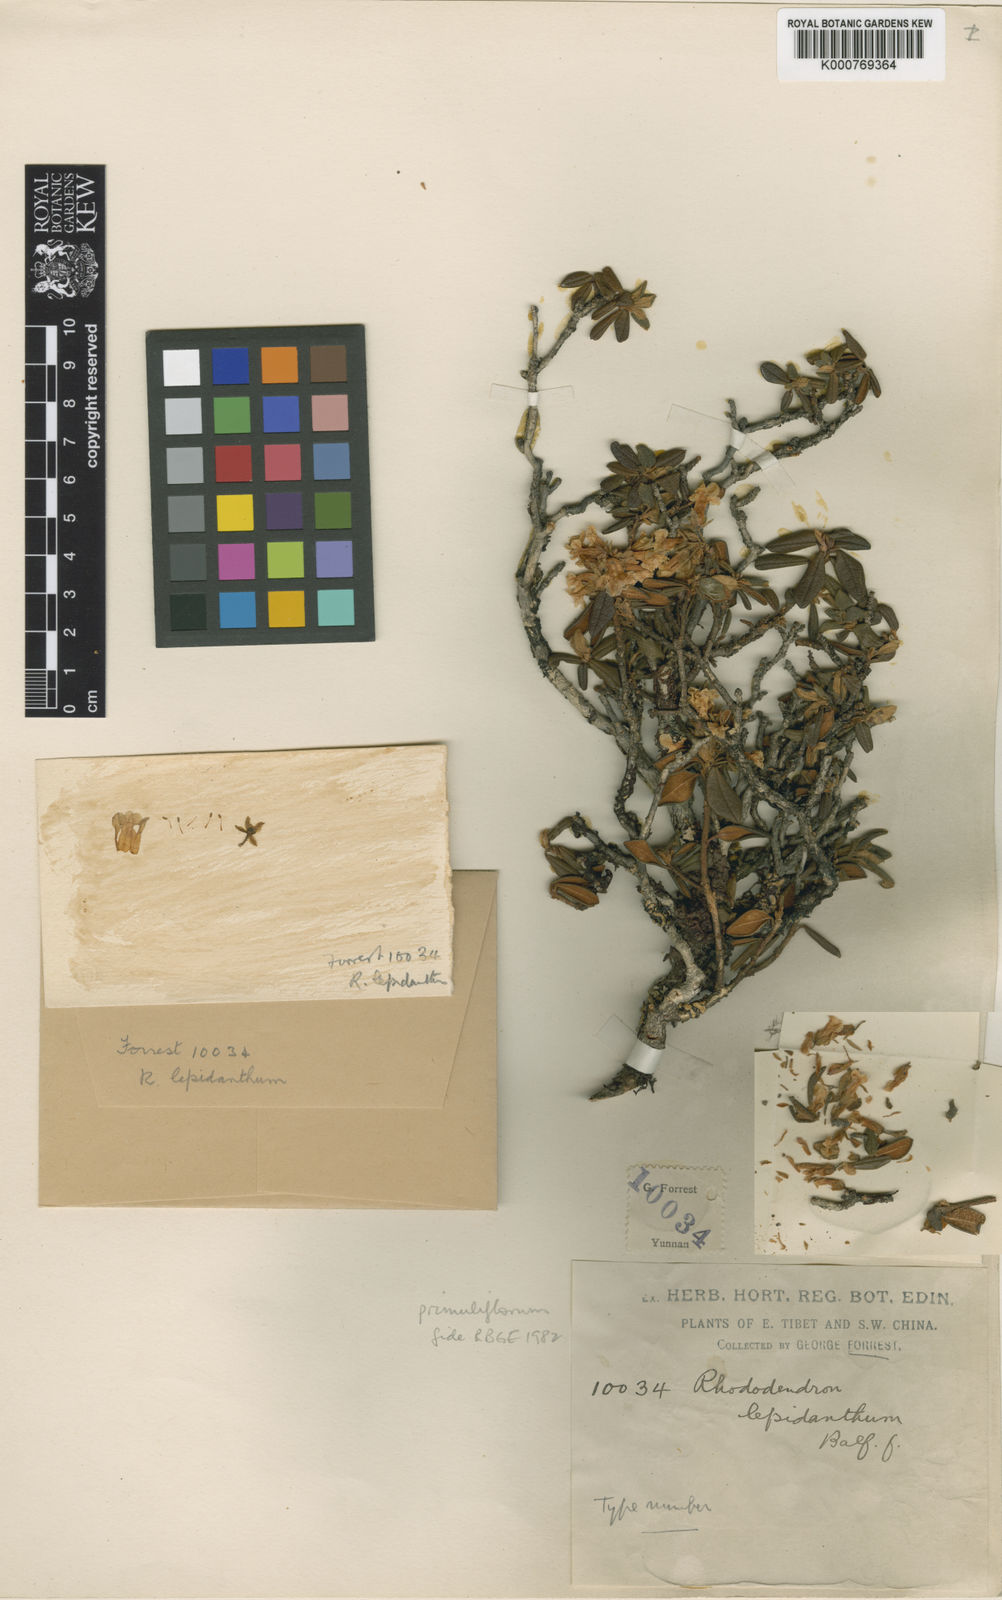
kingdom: Plantae
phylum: Tracheophyta
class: Magnoliopsida
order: Ericales
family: Ericaceae
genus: Rhododendron
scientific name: Rhododendron primuliflorum
